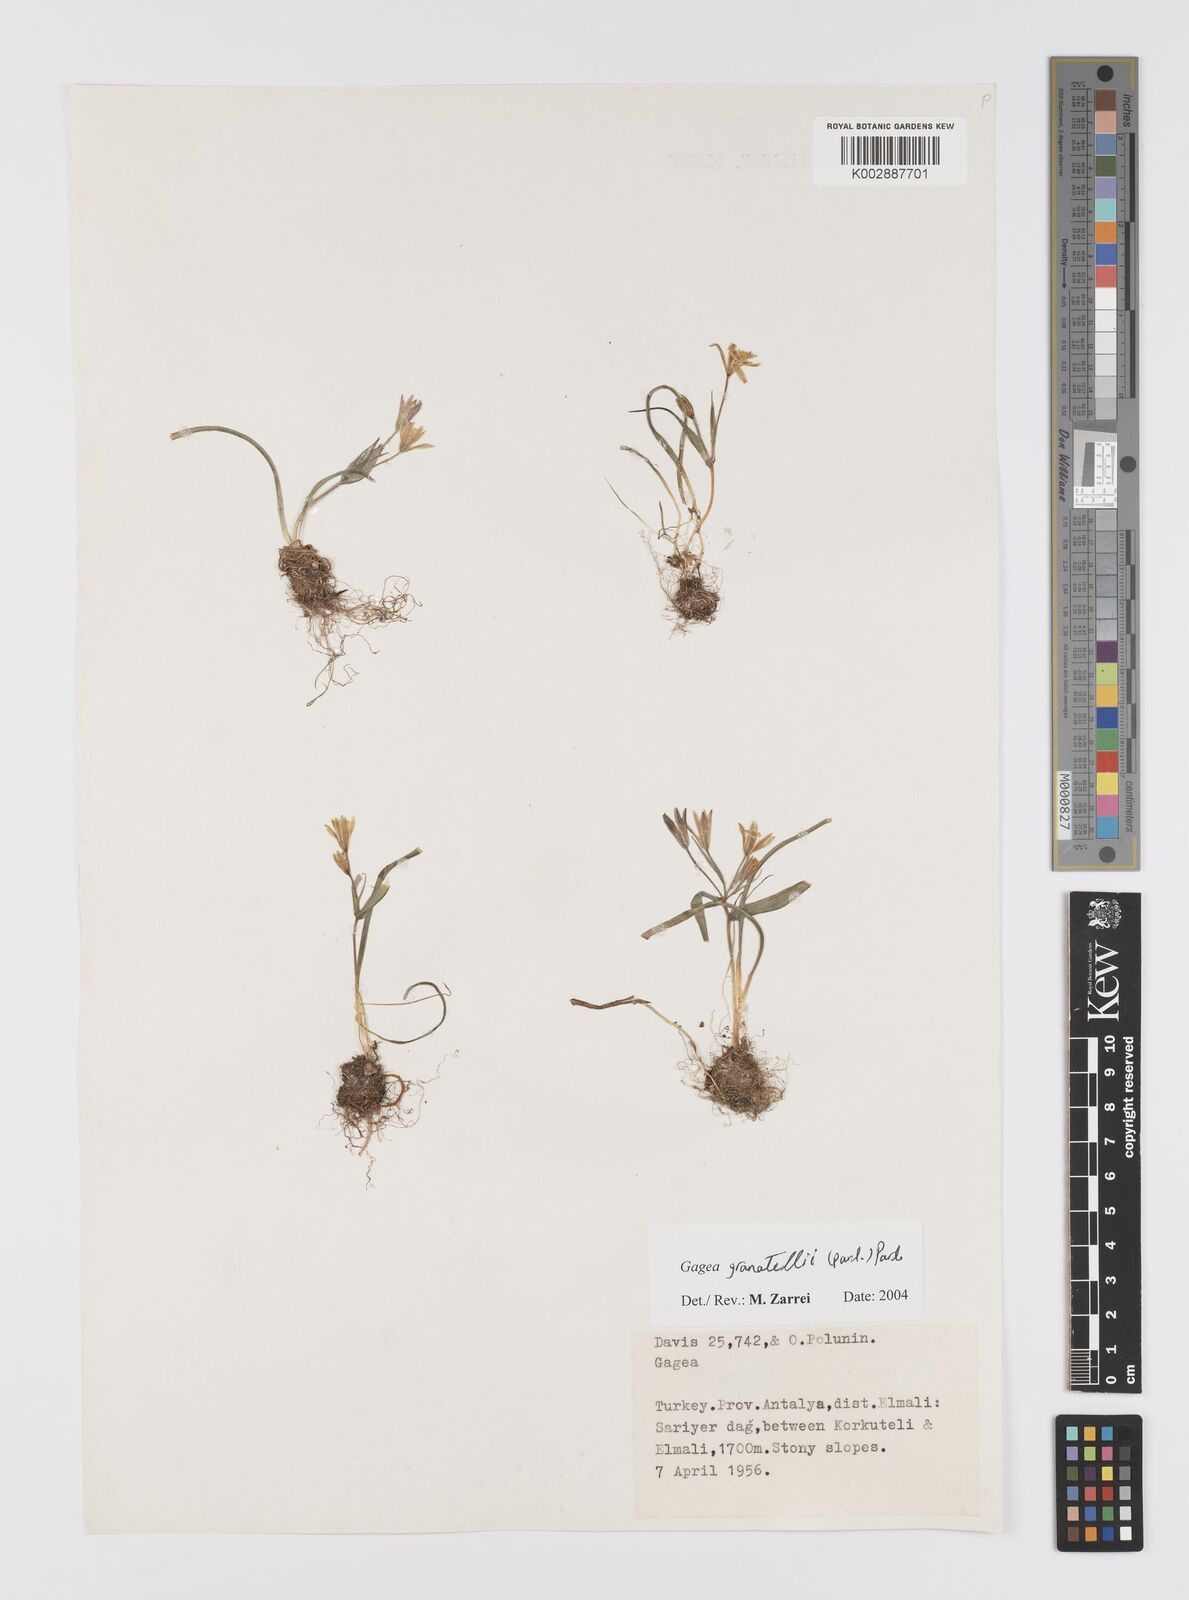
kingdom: Plantae
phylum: Tracheophyta
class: Liliopsida
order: Liliales
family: Liliaceae
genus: Gagea
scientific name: Gagea granatellii
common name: Granatelli’s gagea
